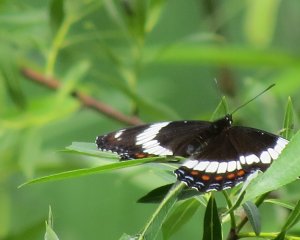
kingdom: Animalia
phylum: Arthropoda
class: Insecta
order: Lepidoptera
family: Nymphalidae
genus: Limenitis
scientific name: Limenitis arthemis
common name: Red-spotted Admiral
